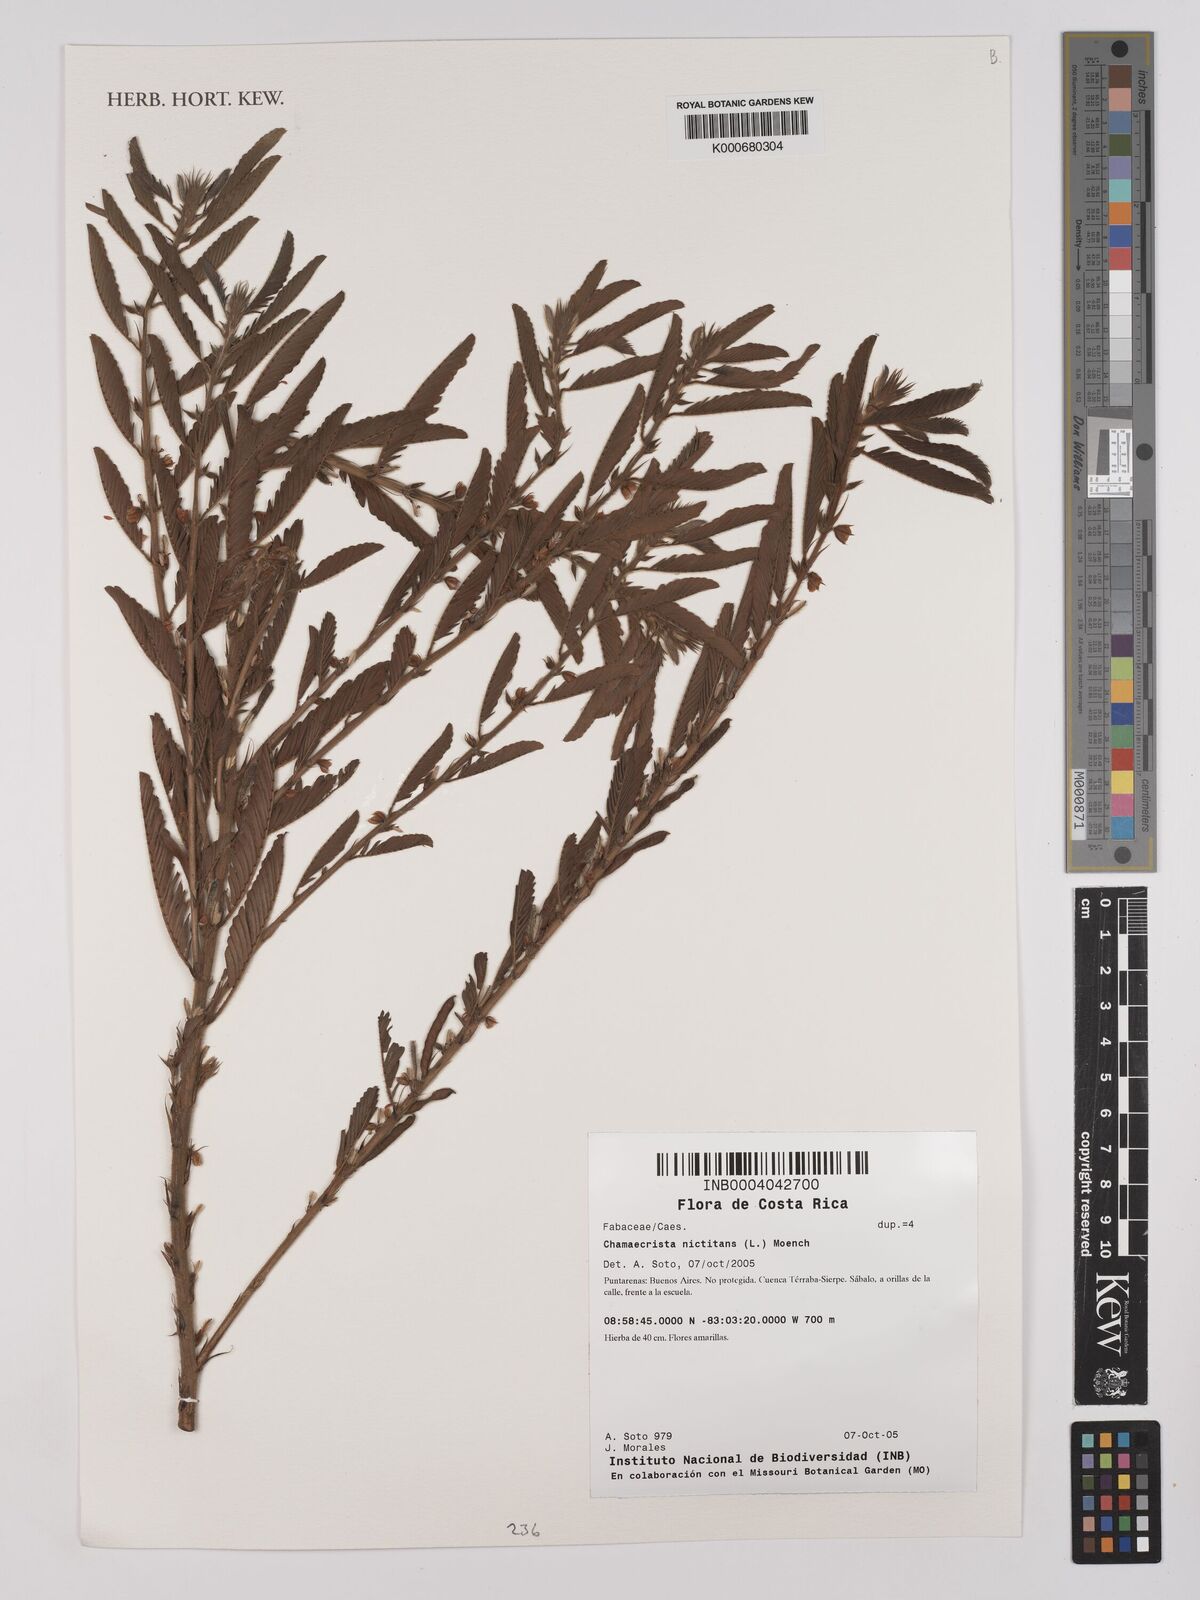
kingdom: Plantae
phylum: Tracheophyta
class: Magnoliopsida
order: Fabales
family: Fabaceae
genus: Chamaecrista
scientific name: Chamaecrista nictitans
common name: Sensitive cassia
